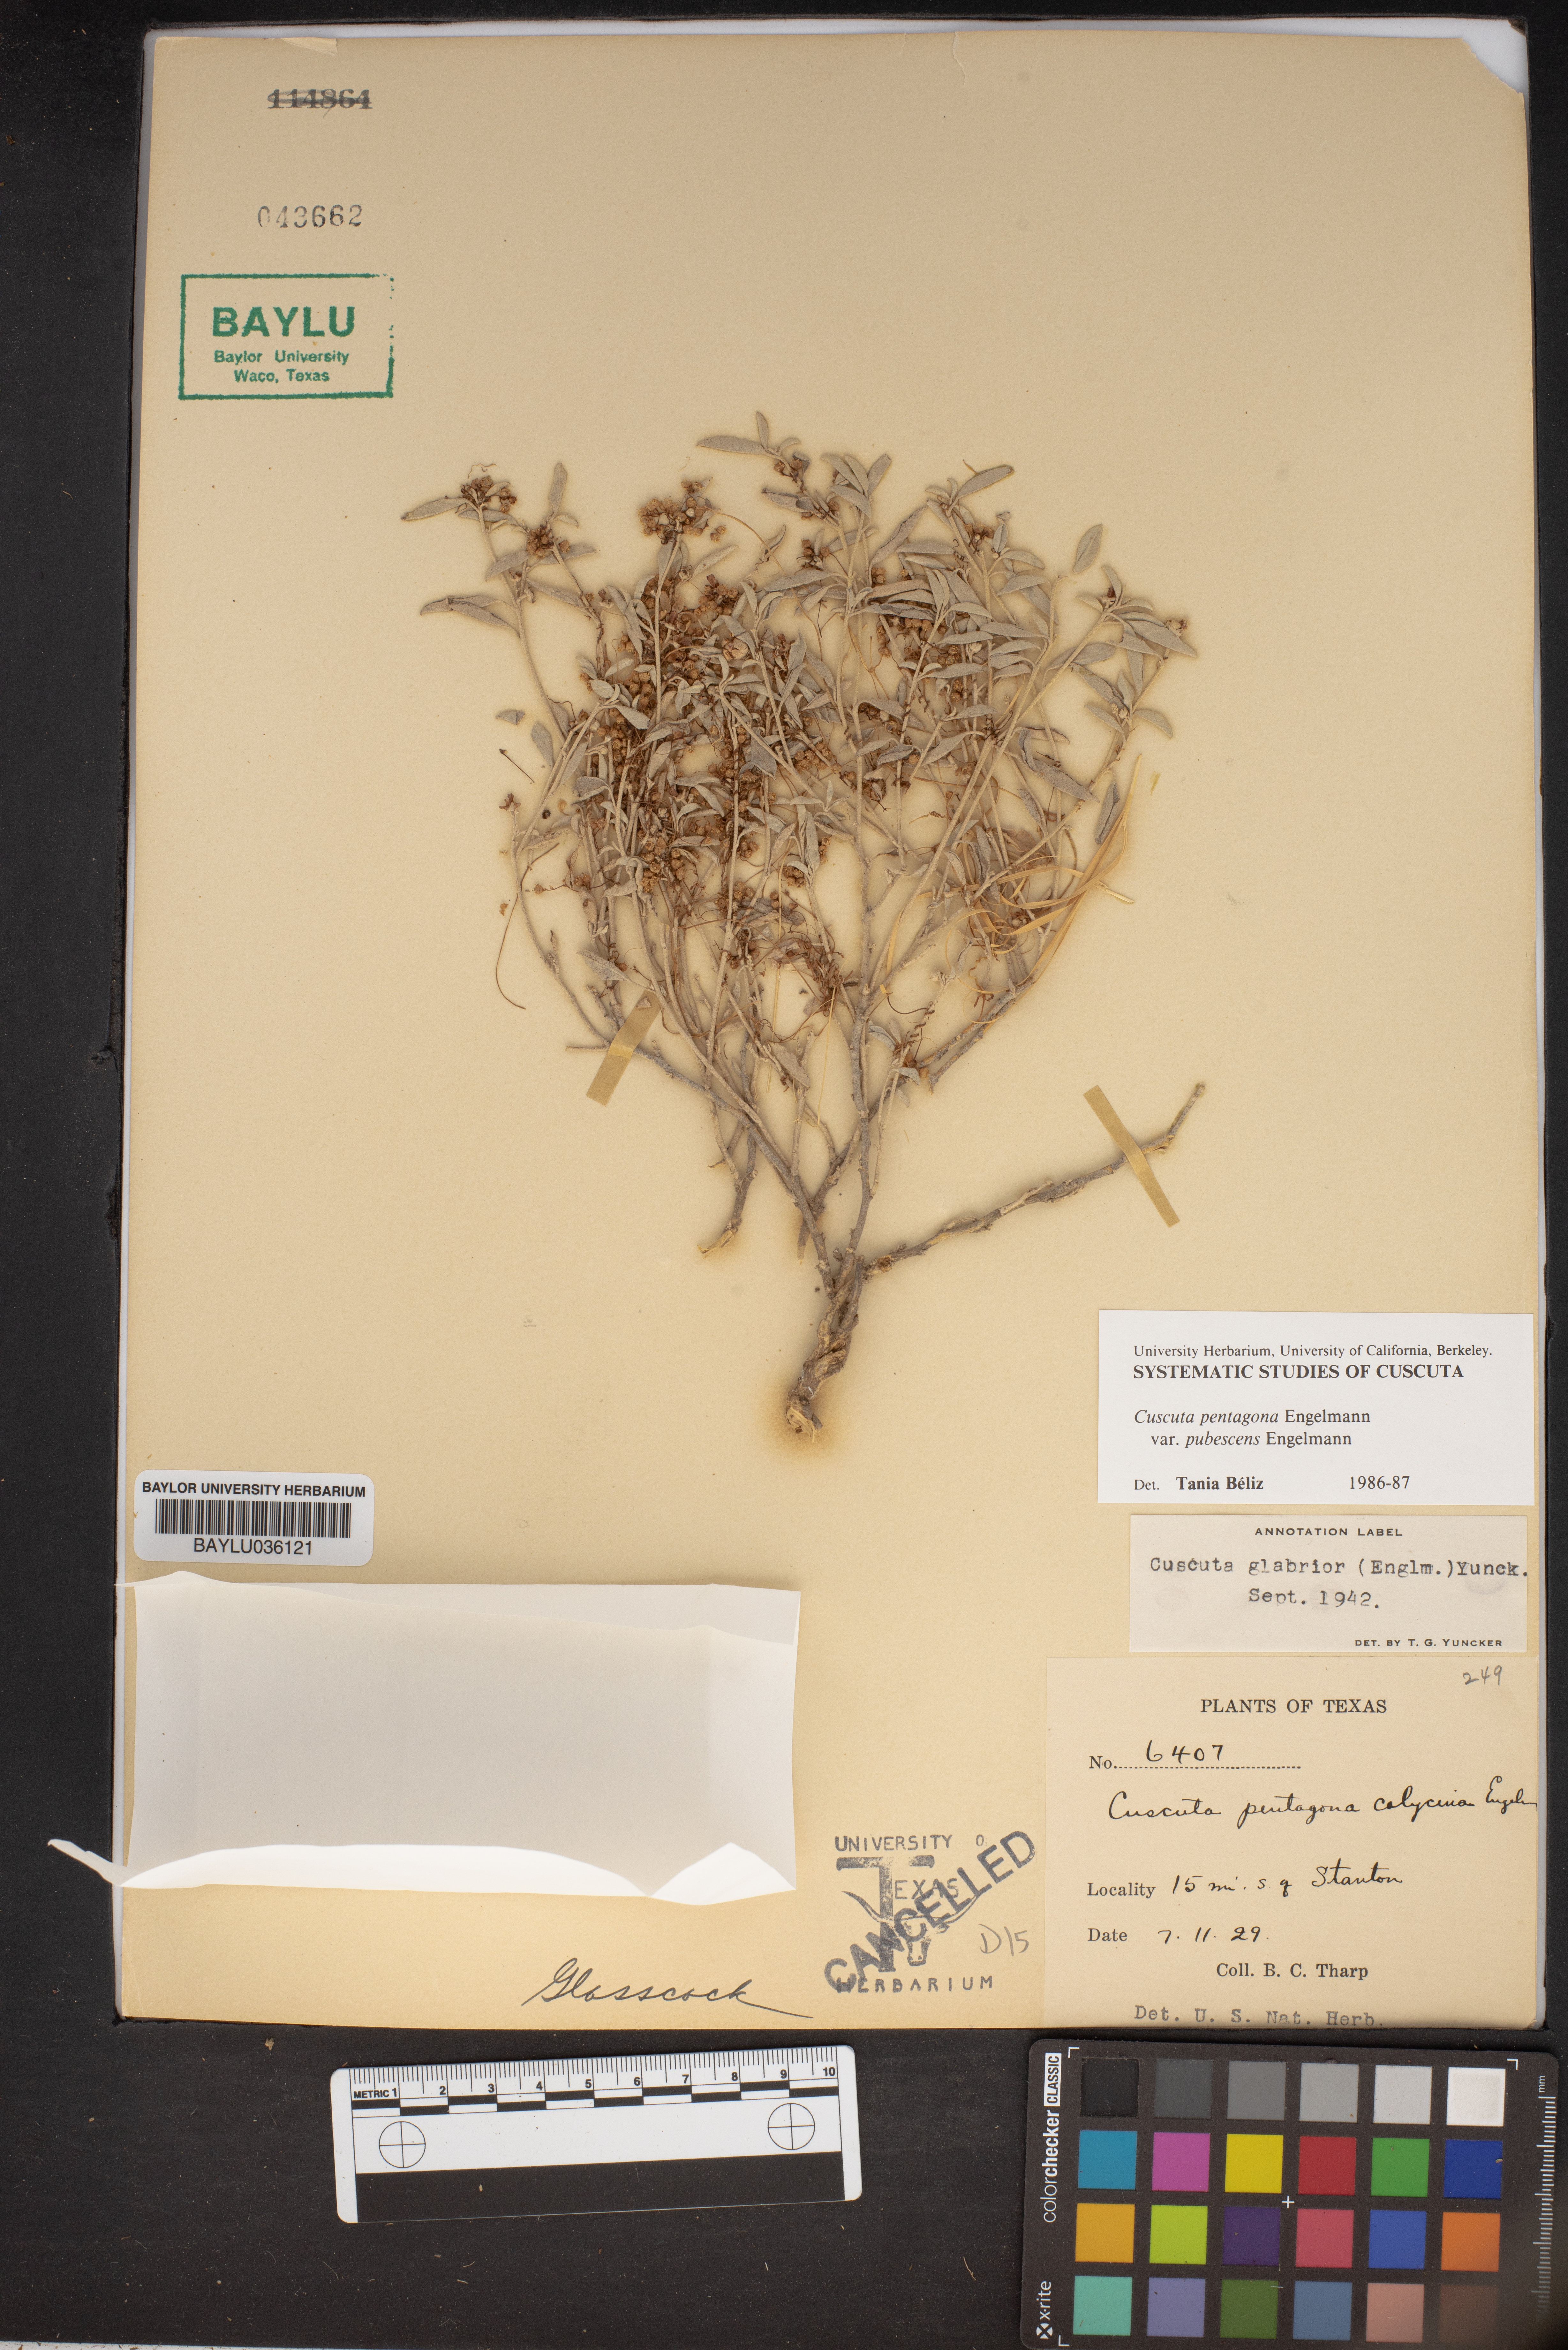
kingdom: Plantae
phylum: Tracheophyta
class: Magnoliopsida
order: Solanales
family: Convolvulaceae
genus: Cuscuta
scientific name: Cuscuta pentagona
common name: Fiveangled dodder
